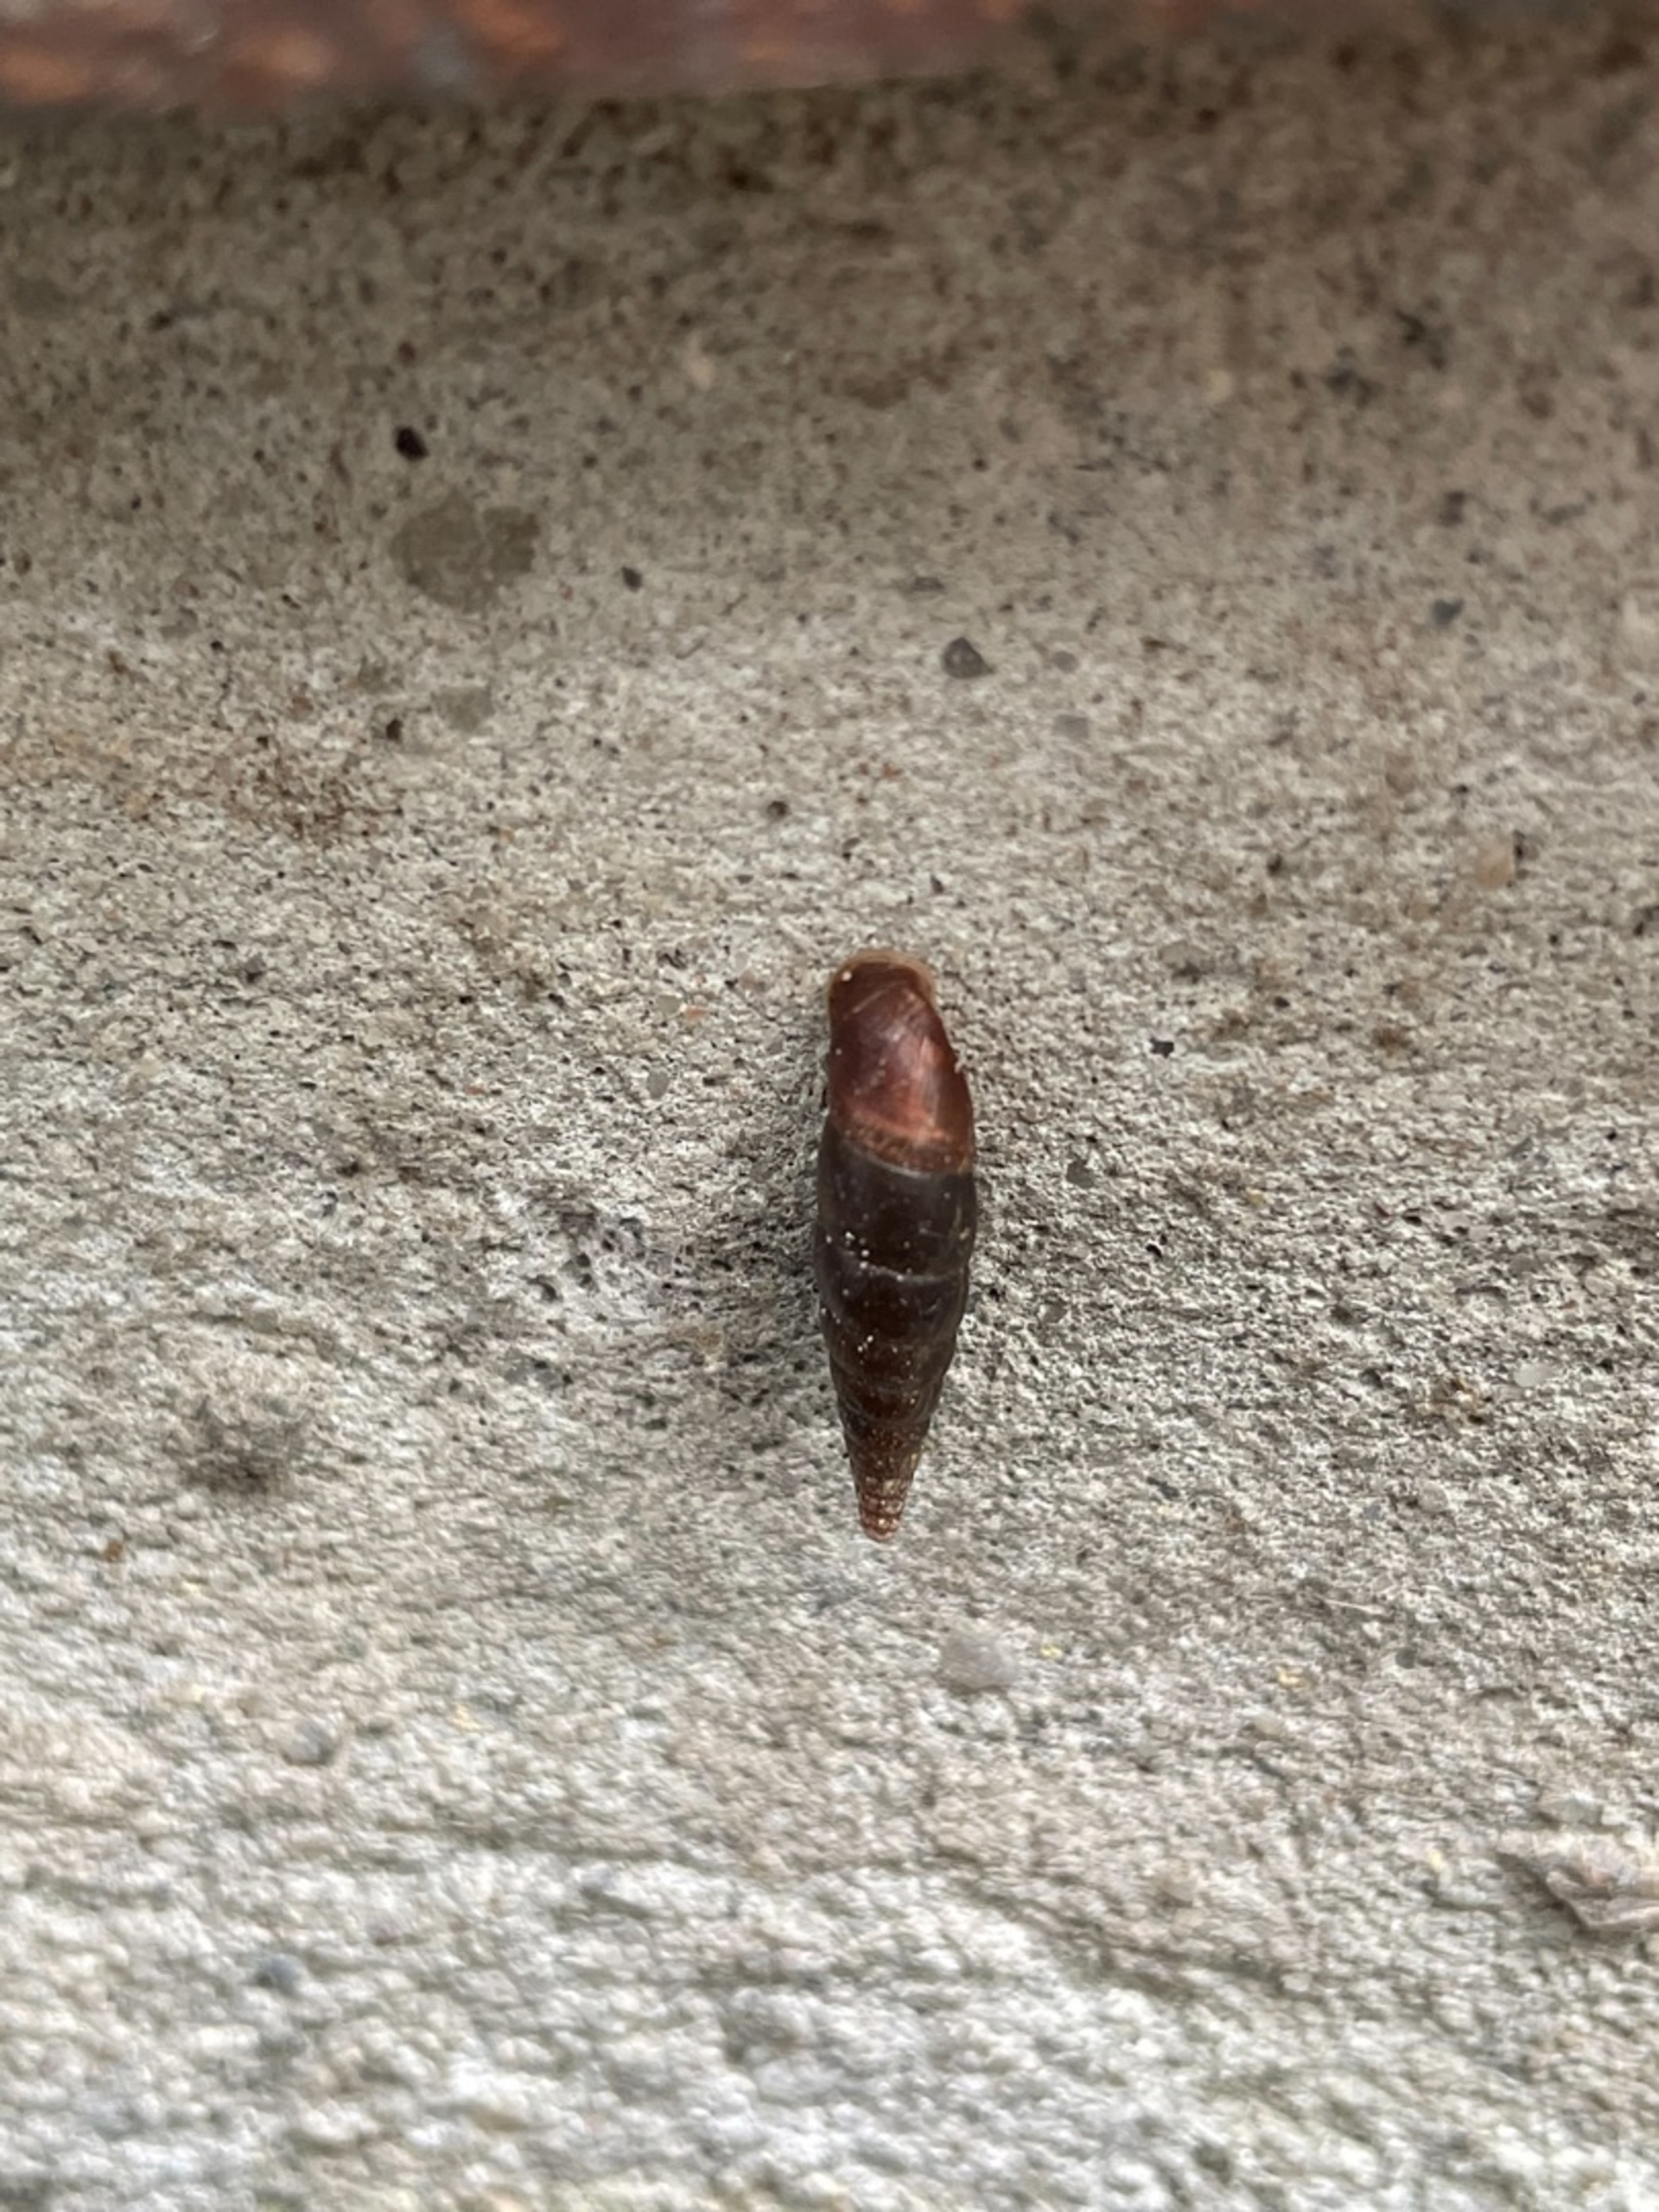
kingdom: Animalia
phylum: Mollusca
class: Gastropoda
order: Stylommatophora
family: Clausiliidae
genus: Cochlodina
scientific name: Cochlodina laminata
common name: Glat foldsnegl
